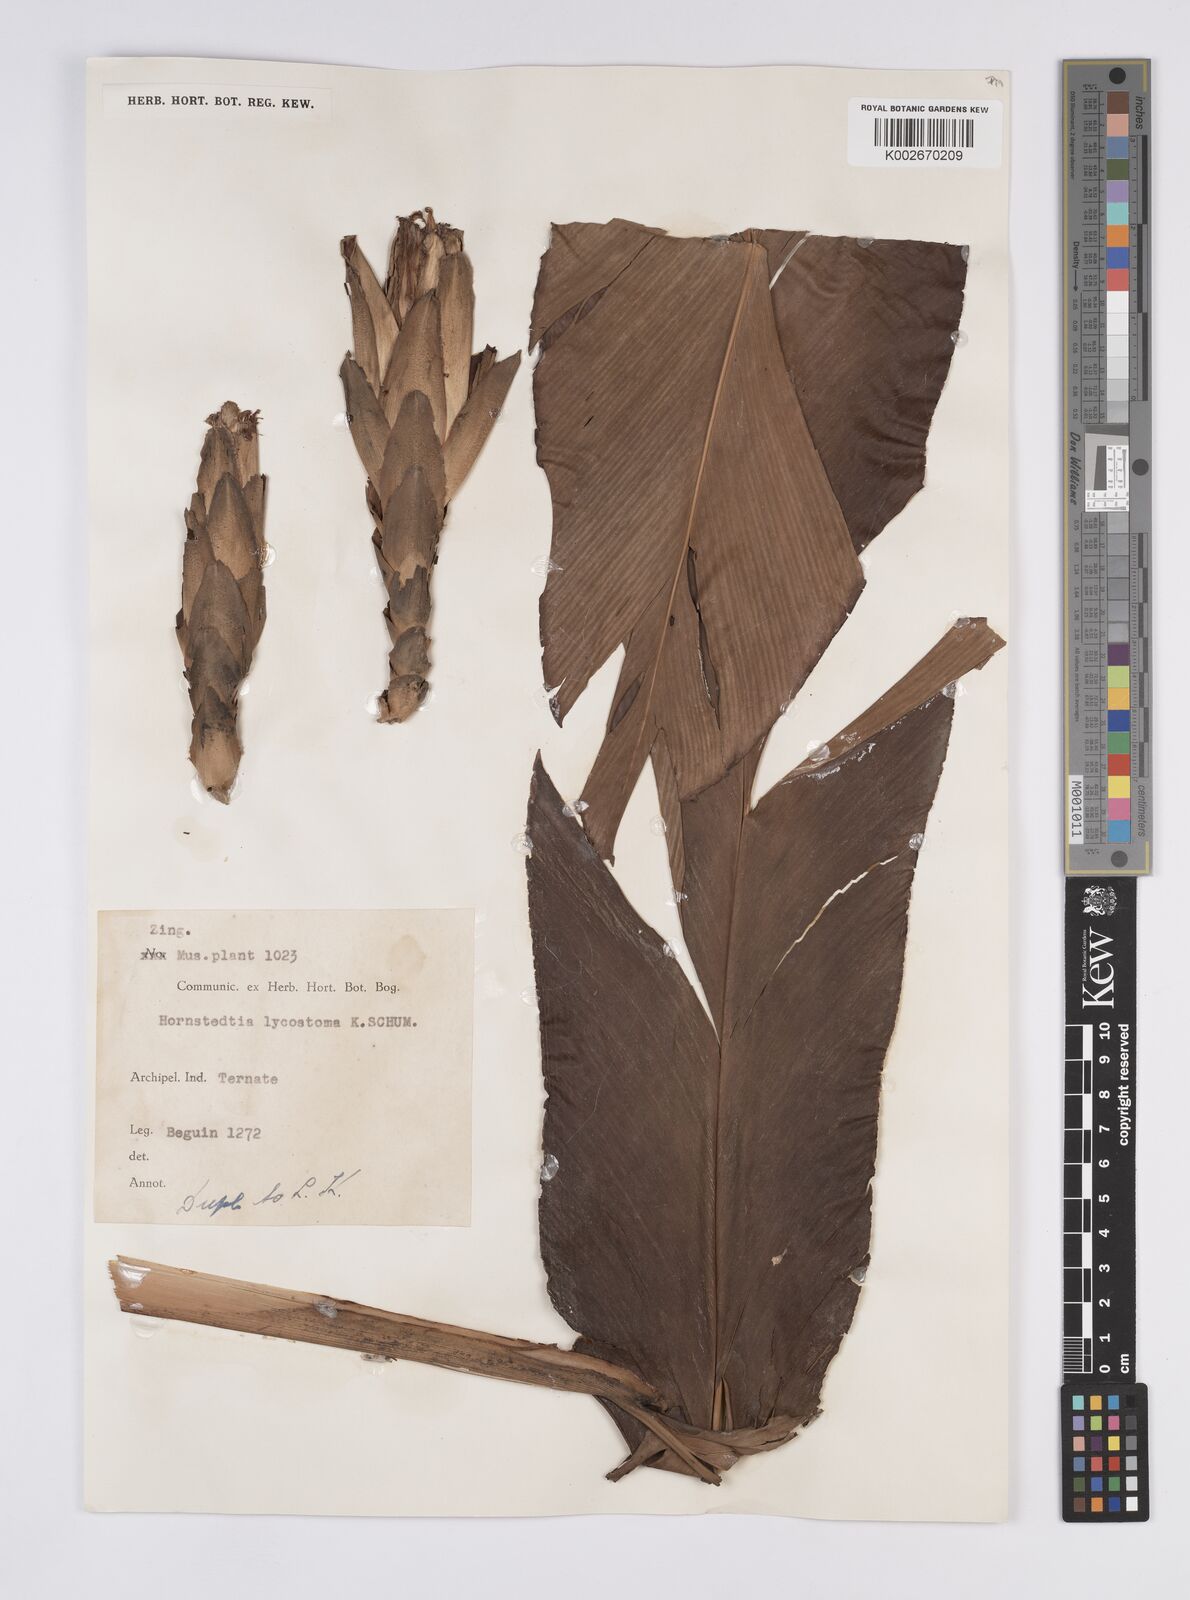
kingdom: Plantae
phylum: Tracheophyta
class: Liliopsida
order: Zingiberales
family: Zingiberaceae
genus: Hornstedtia
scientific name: Hornstedtia scottiana
